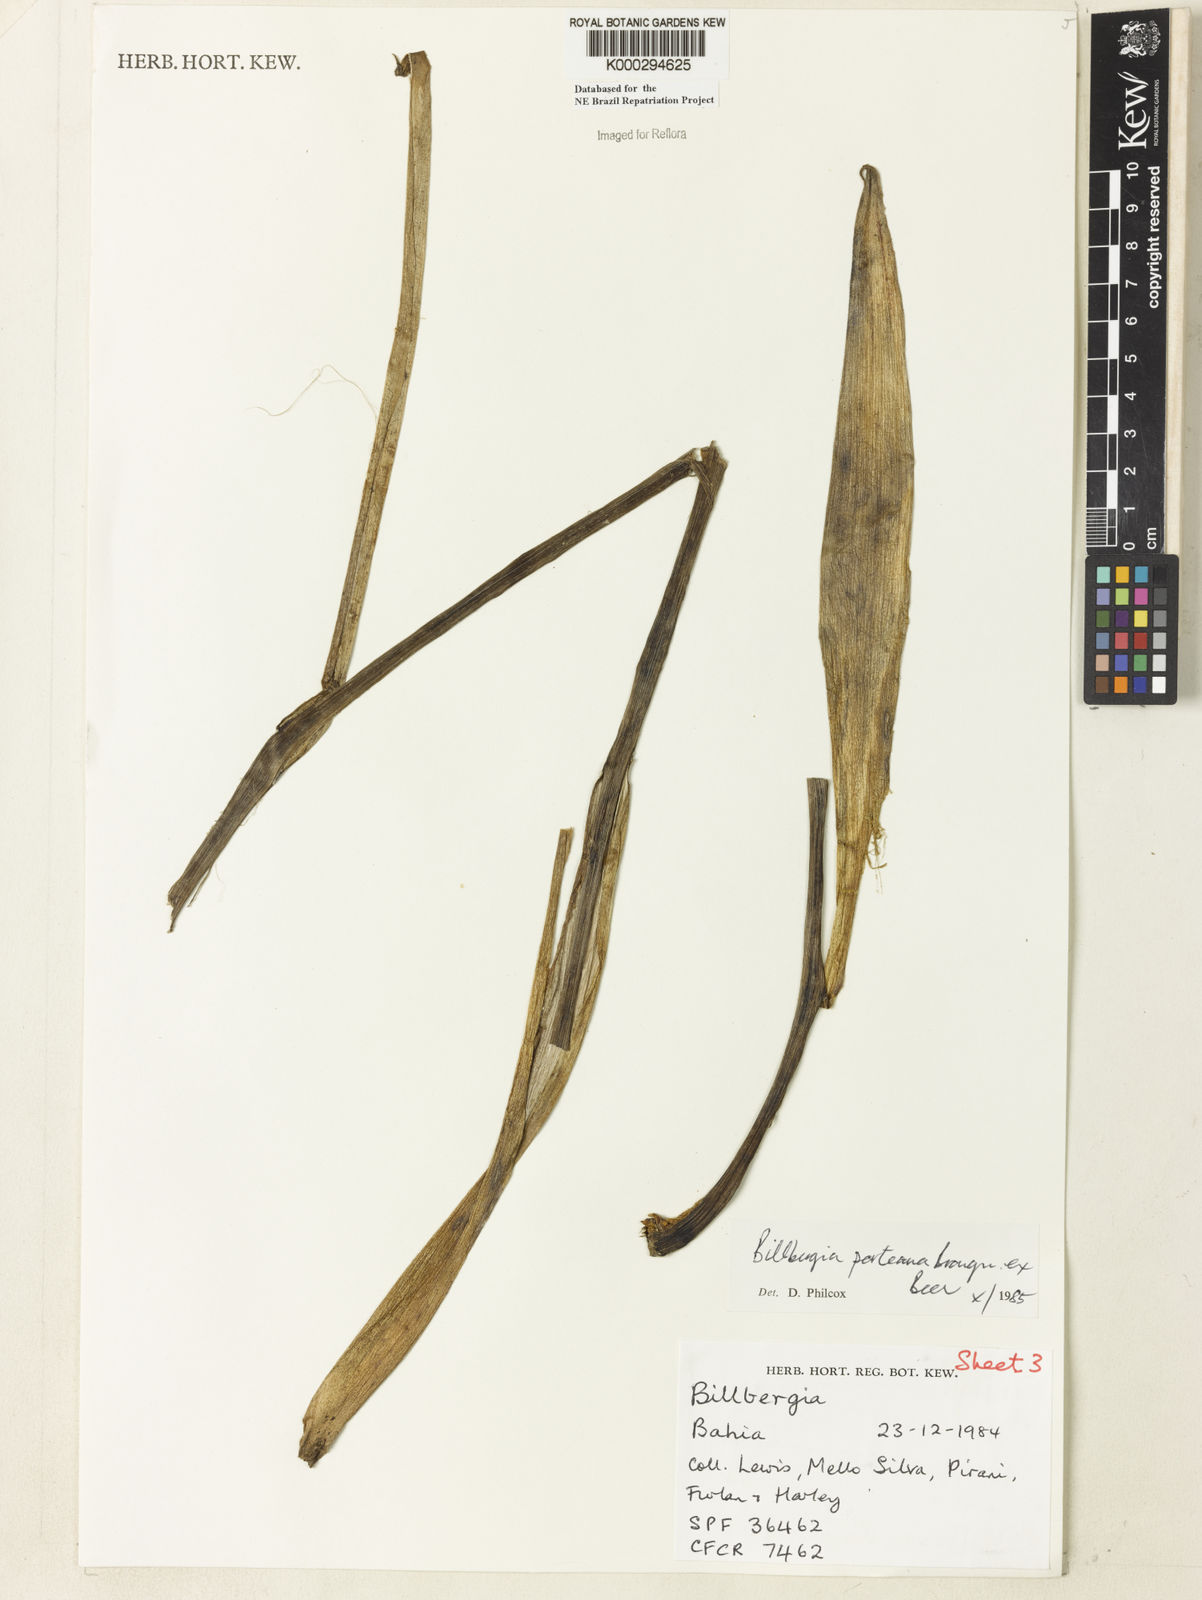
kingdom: Plantae
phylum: Tracheophyta
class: Liliopsida
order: Poales
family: Bromeliaceae
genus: Billbergia
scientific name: Billbergia porteana
